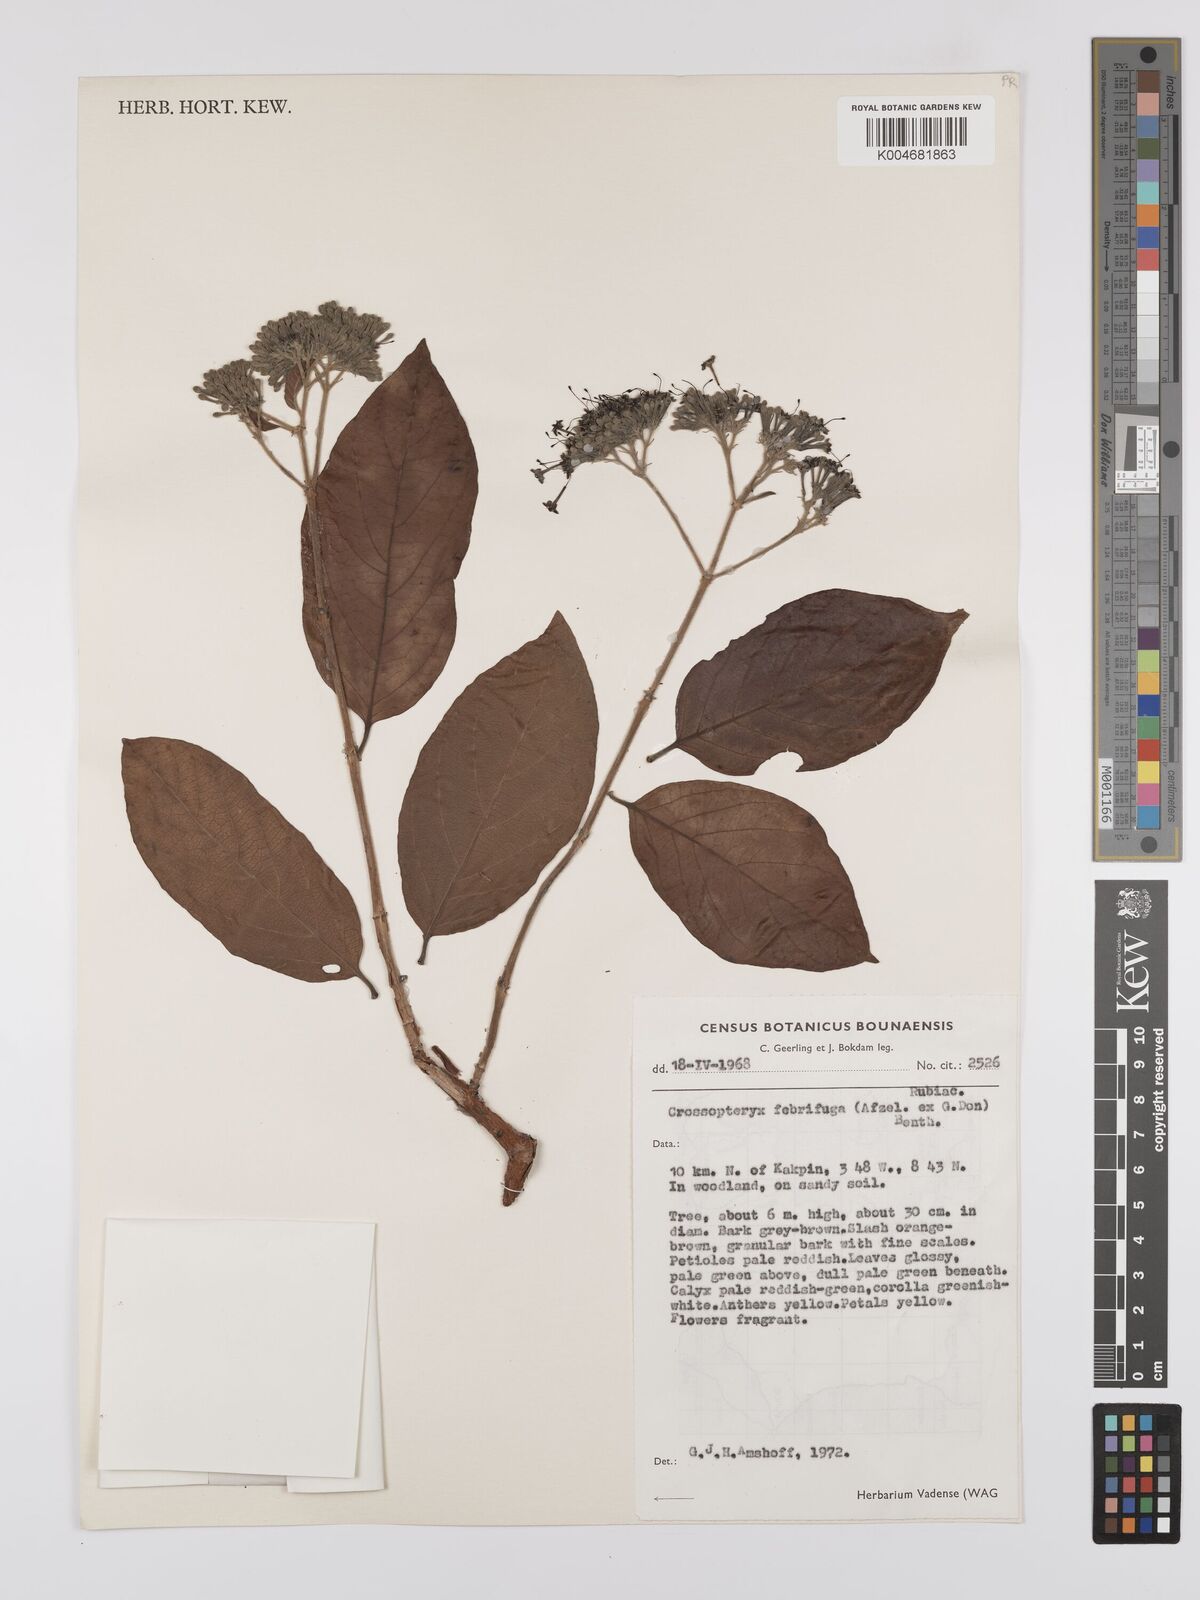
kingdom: Plantae
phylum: Tracheophyta
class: Magnoliopsida
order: Gentianales
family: Rubiaceae
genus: Crossopteryx
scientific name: Crossopteryx febrifuga
